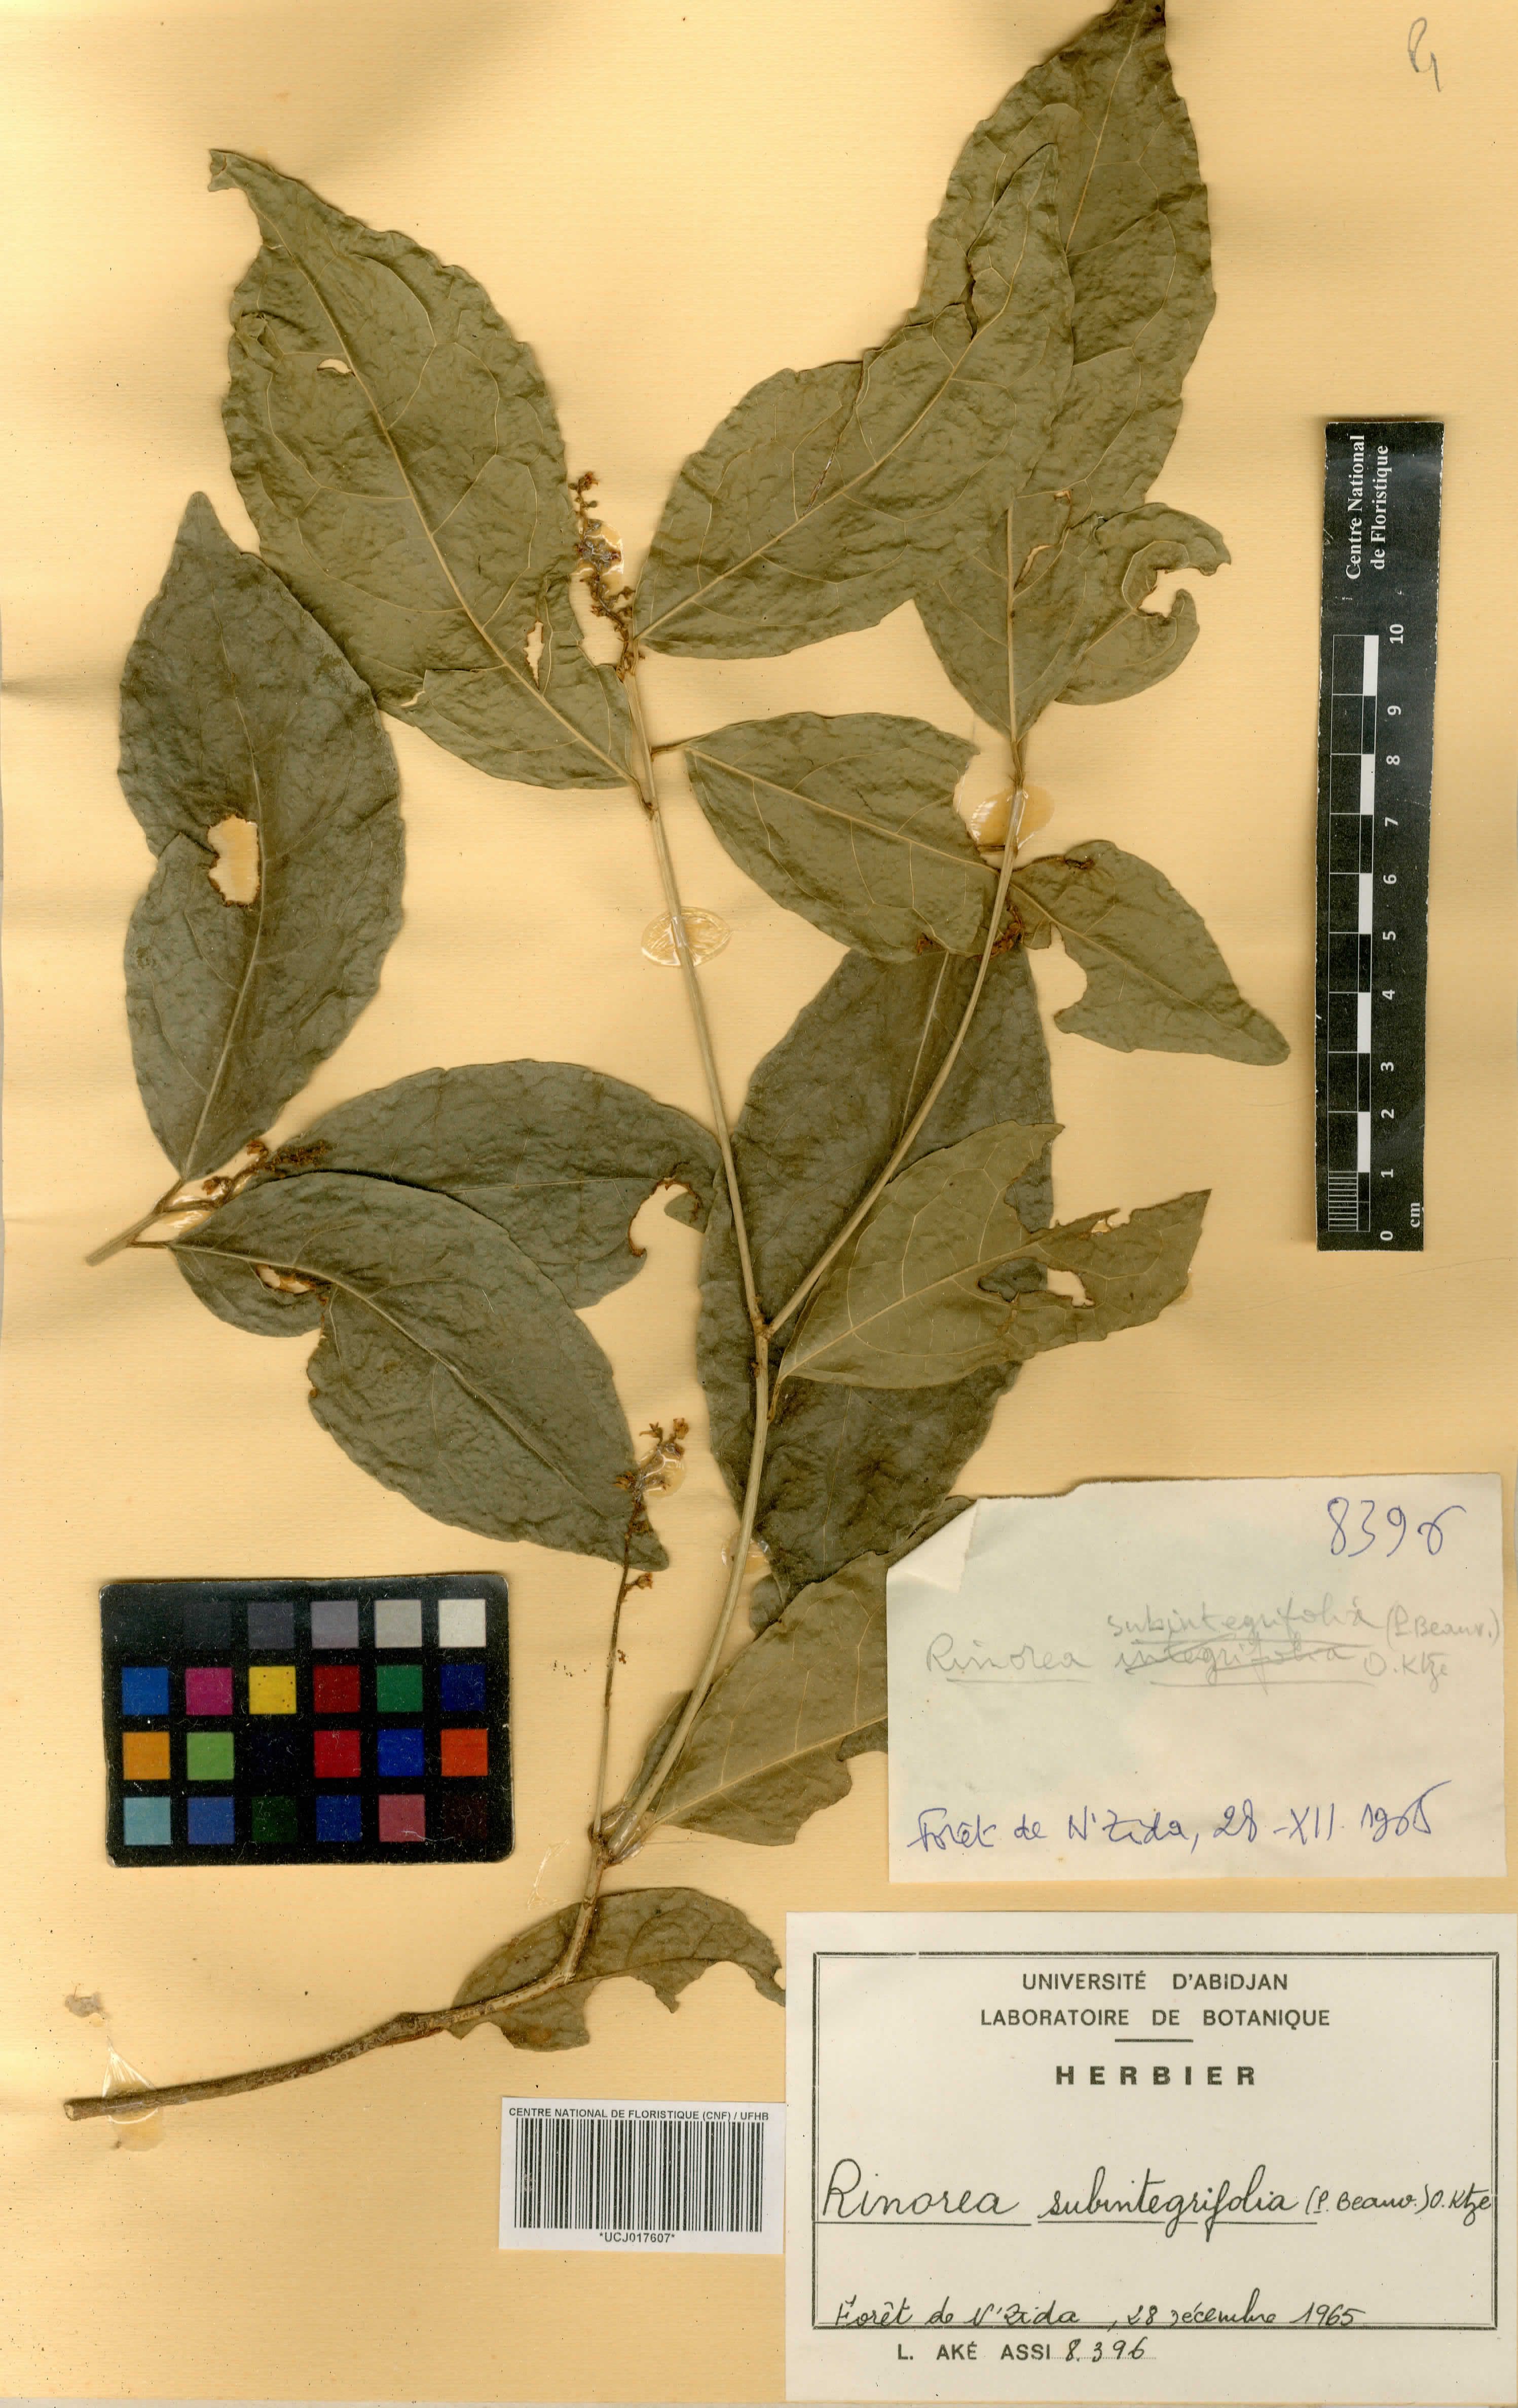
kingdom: Plantae
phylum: Tracheophyta
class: Magnoliopsida
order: Malpighiales
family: Violaceae
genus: Rinorea
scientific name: Rinorea subintegrifolia
